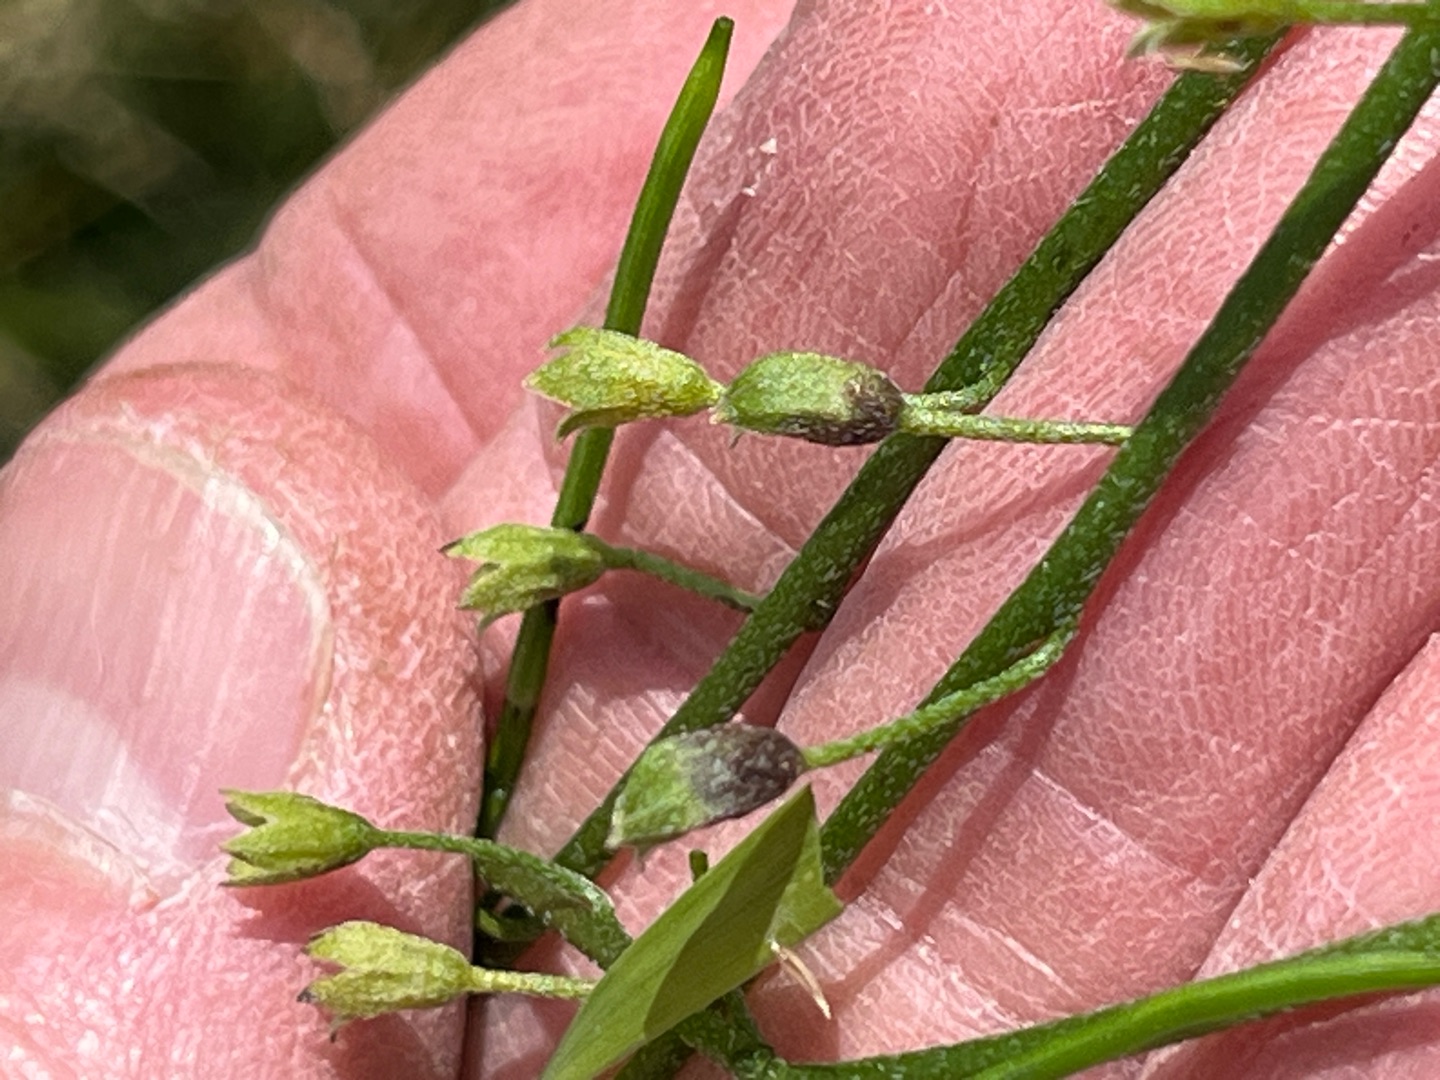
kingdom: Animalia
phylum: Arthropoda
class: Insecta
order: Diptera
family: Cecidomyiidae
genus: Dasineura
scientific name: Dasineura myosotidis
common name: Forglemmigejgalmyg
